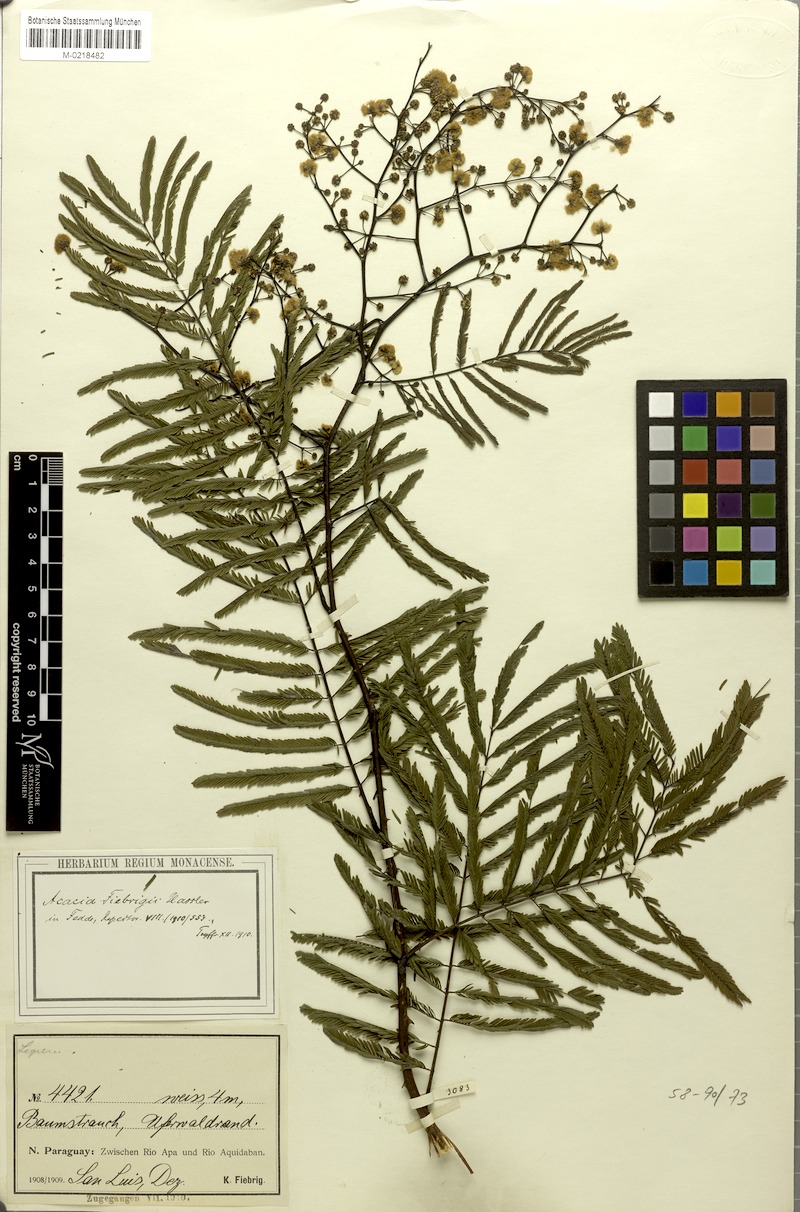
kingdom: Plantae
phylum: Tracheophyta
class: Magnoliopsida
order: Fabales
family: Fabaceae
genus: Pseudosenegalia
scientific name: Pseudosenegalia feddeana
